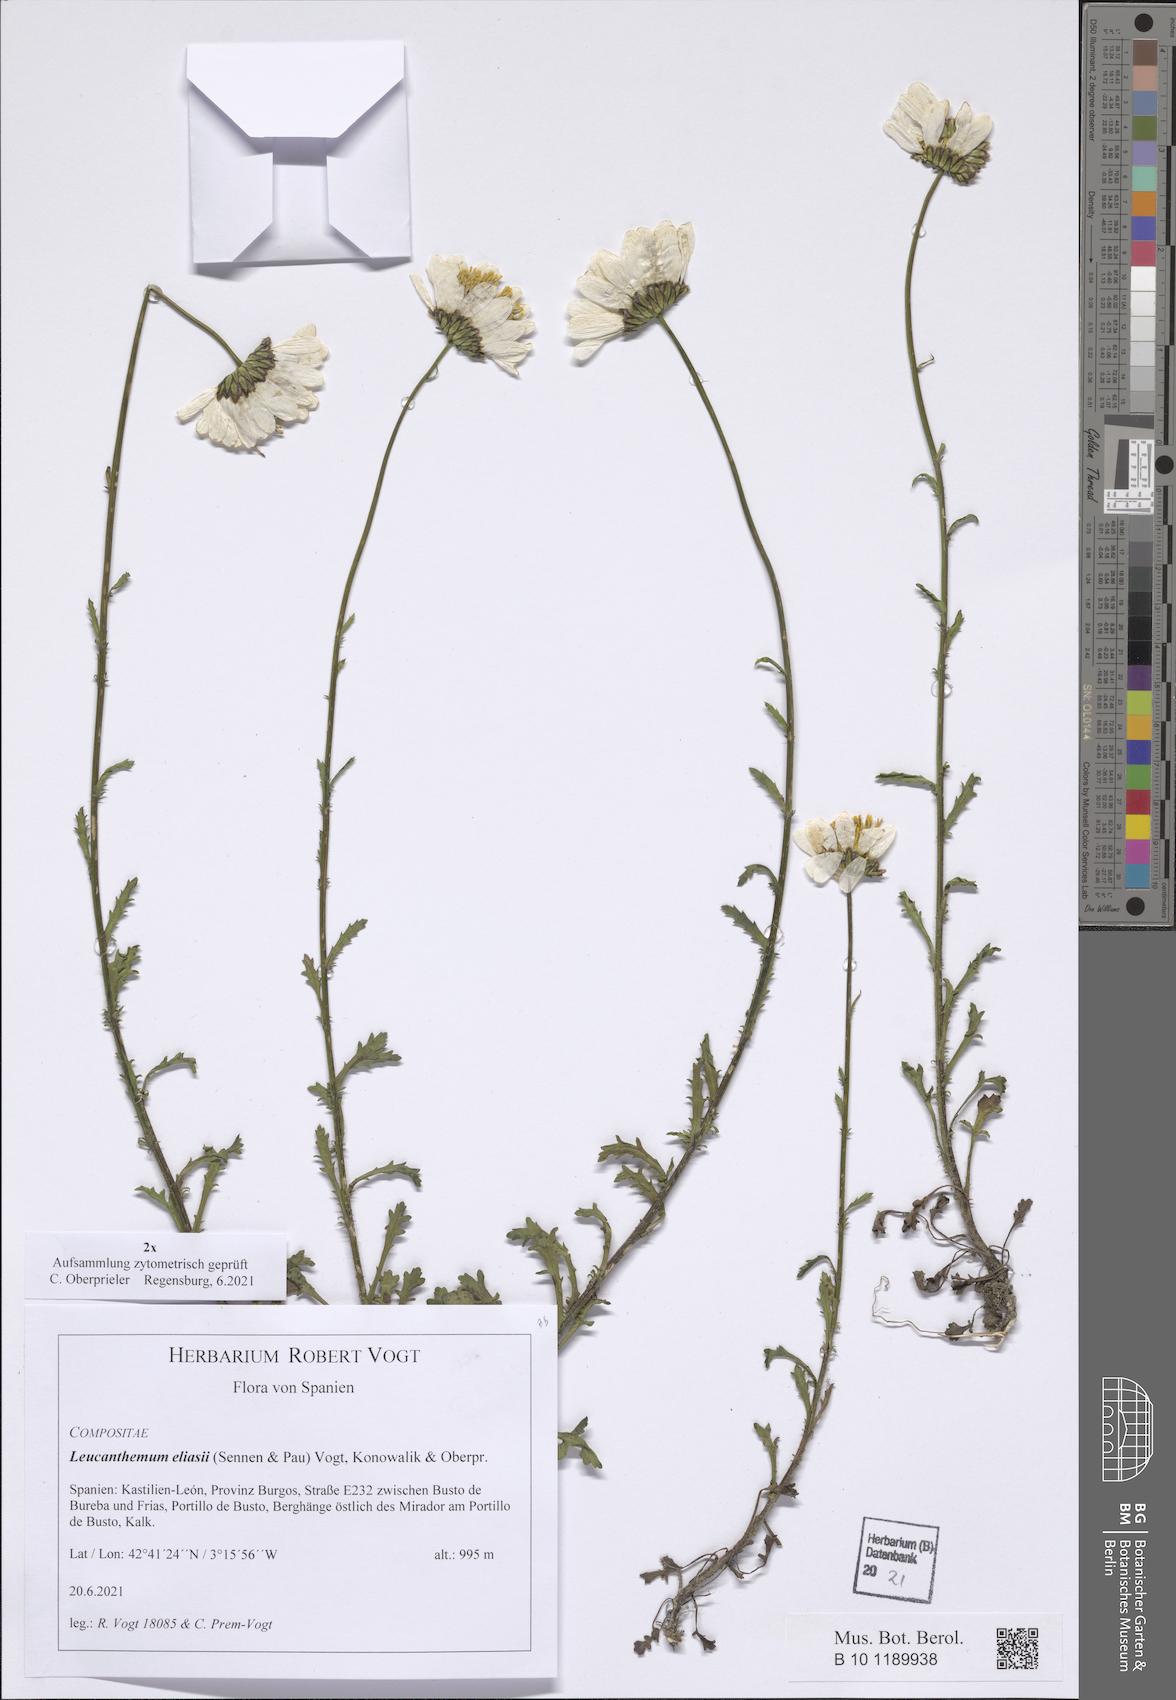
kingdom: Plantae
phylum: Tracheophyta
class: Magnoliopsida
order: Asterales
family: Asteraceae
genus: Leucanthemum
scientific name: Leucanthemum eliasii
